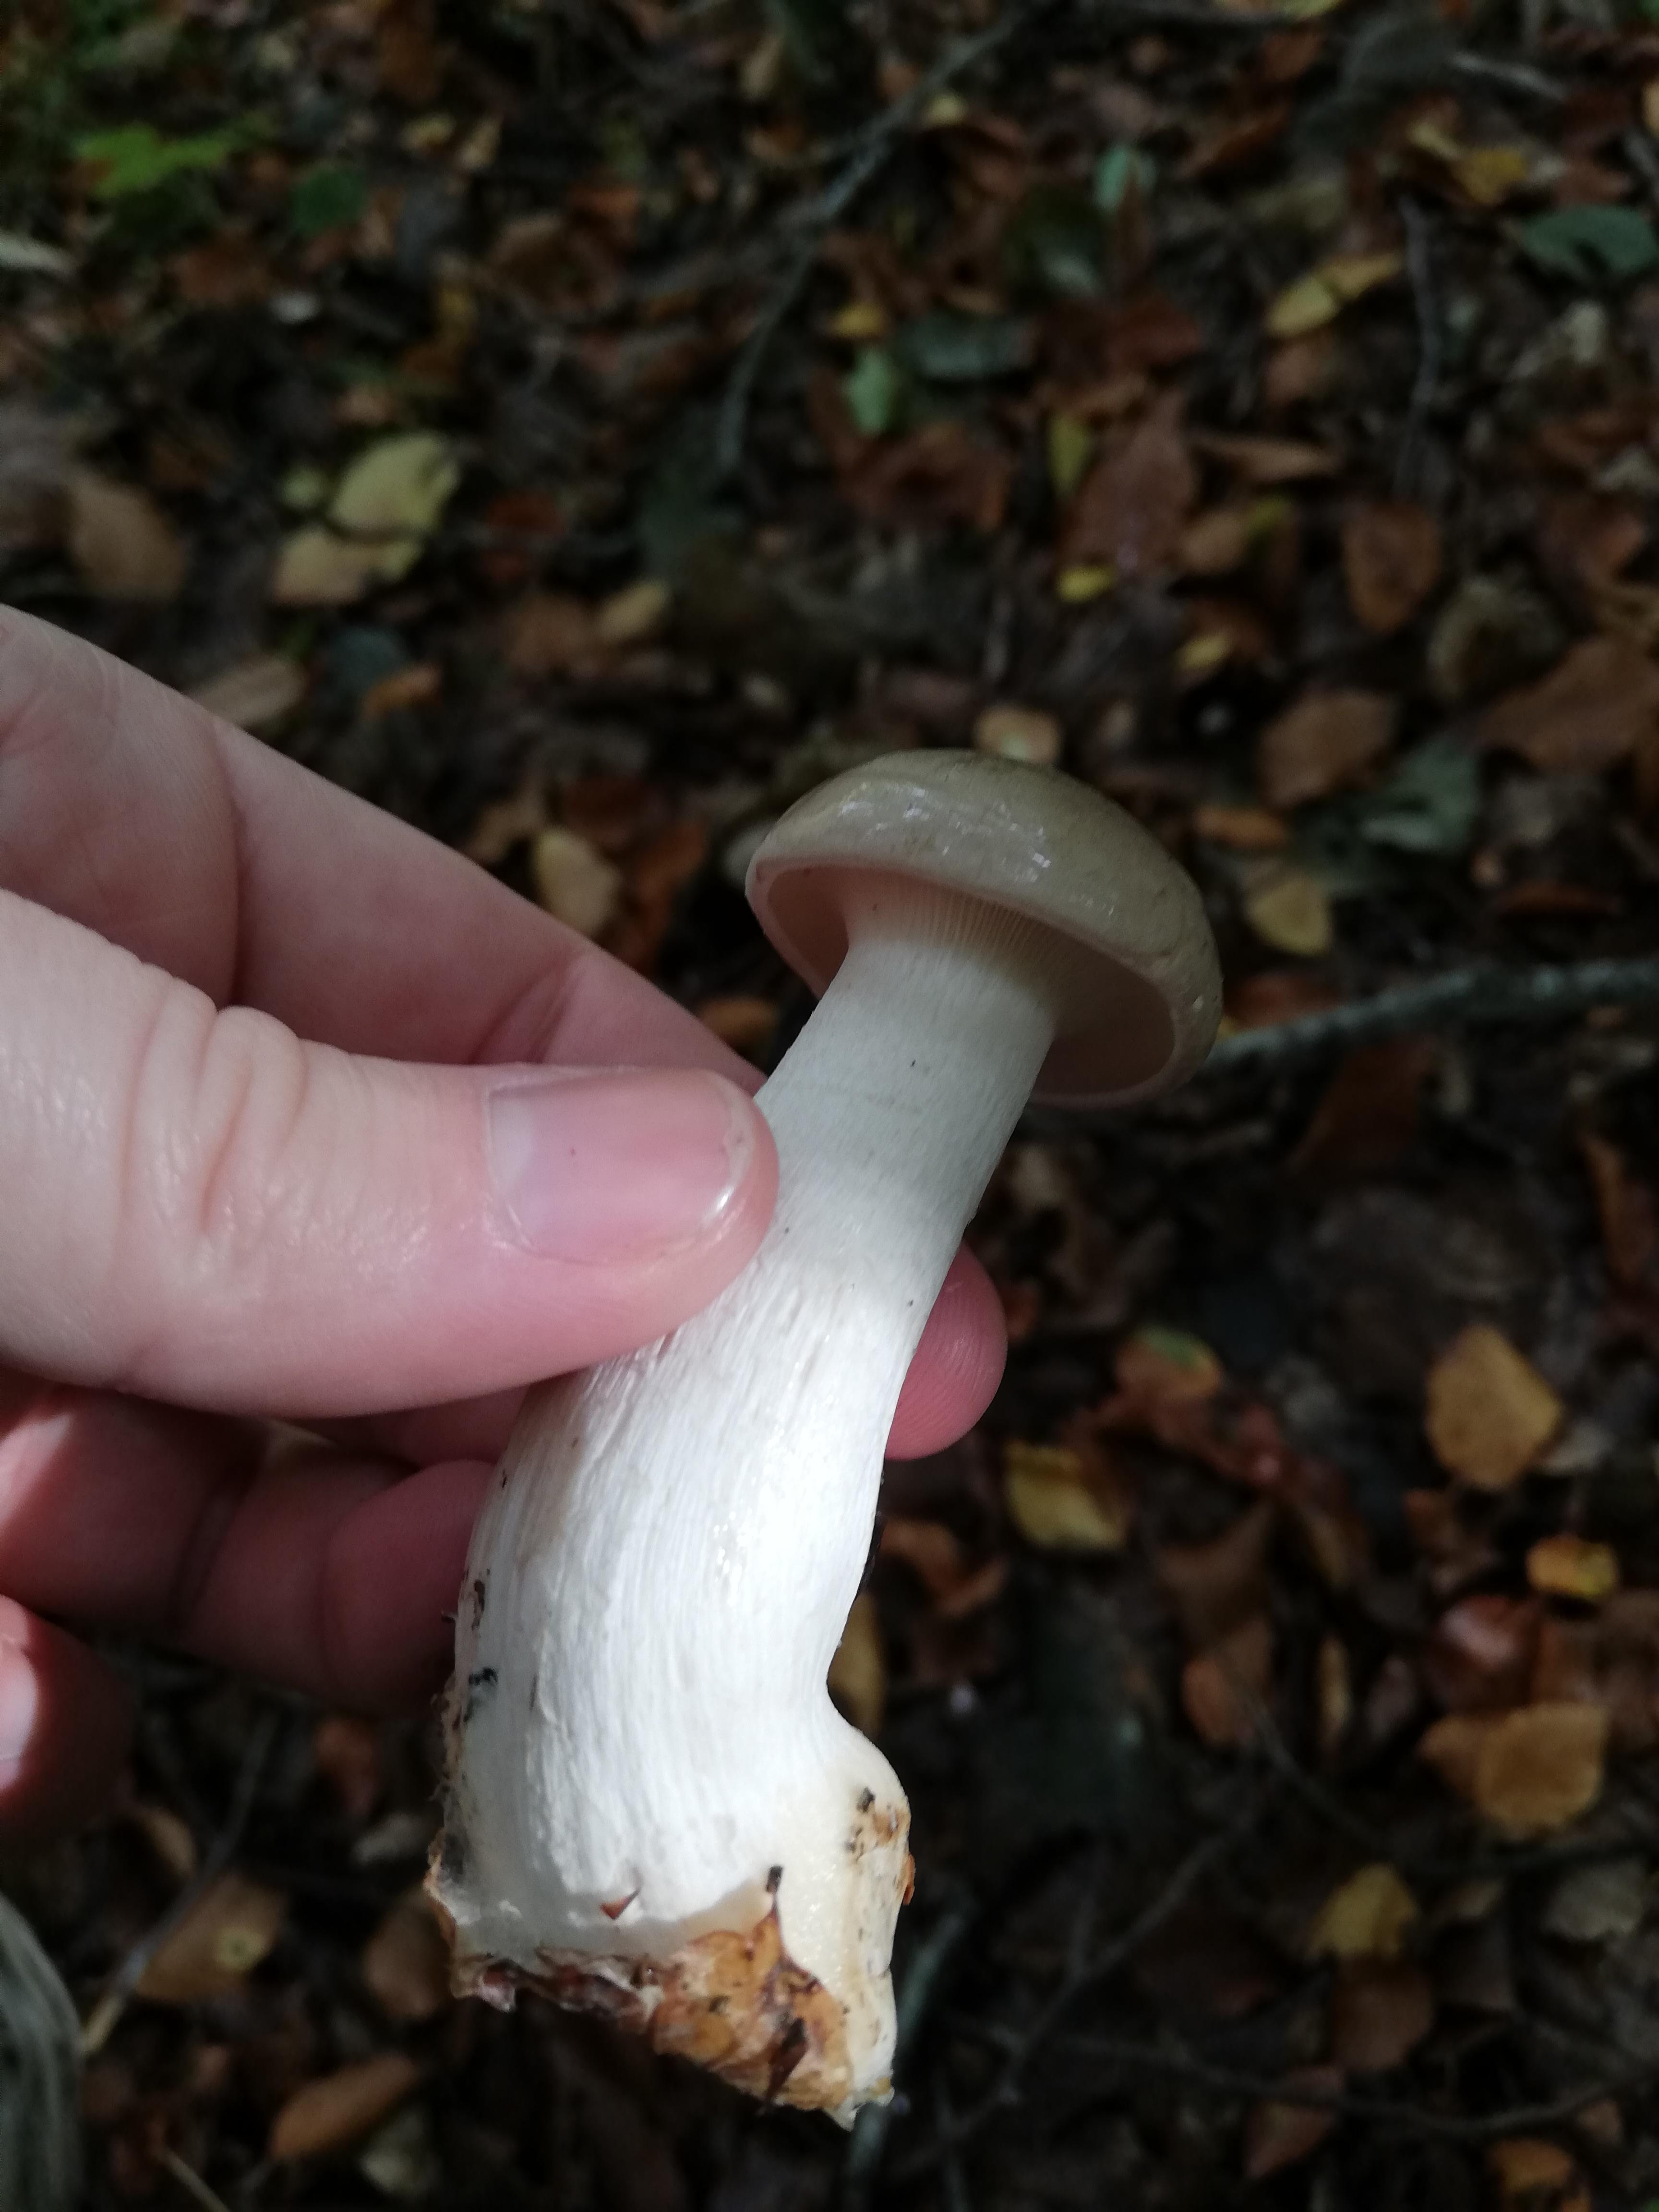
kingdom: Fungi
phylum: Basidiomycota
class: Agaricomycetes
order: Agaricales
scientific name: Agaricales
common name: champignonordenen
